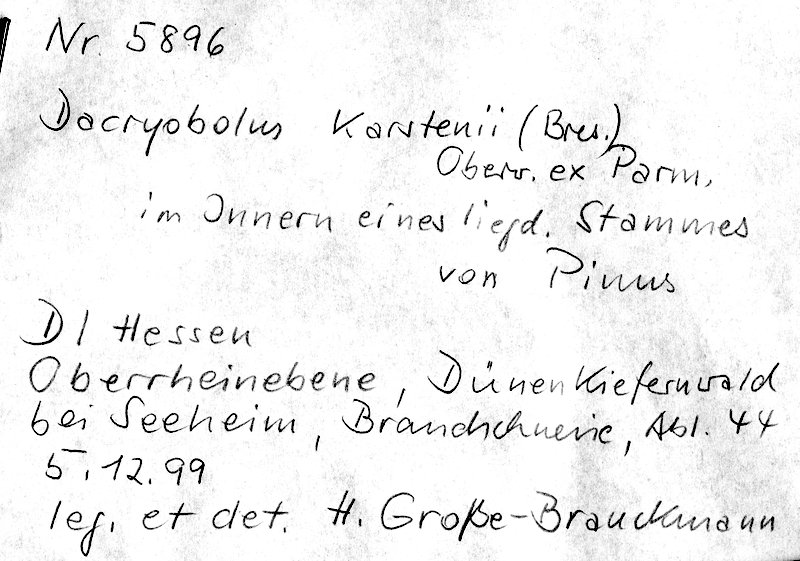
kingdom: Plantae
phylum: Tracheophyta
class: Pinopsida
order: Pinales
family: Pinaceae
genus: Pinus
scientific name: Pinus
